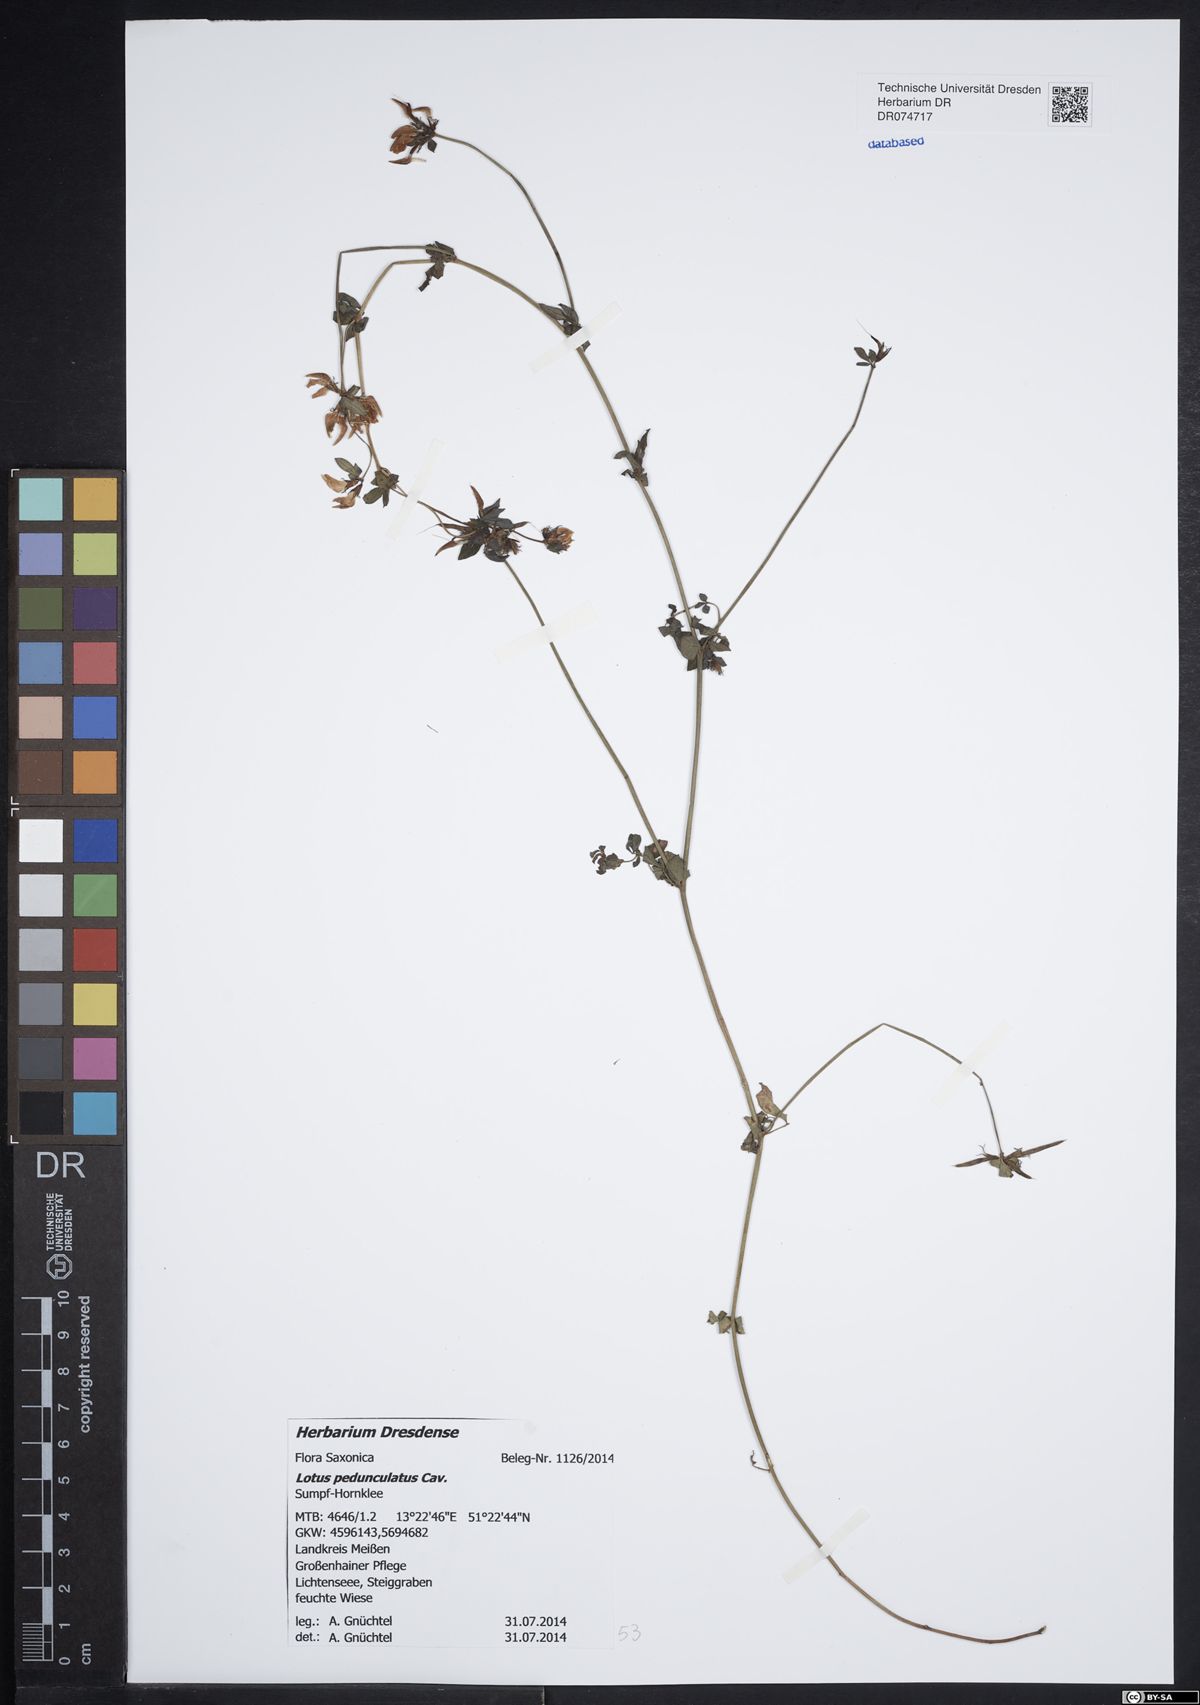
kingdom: Plantae
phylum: Tracheophyta
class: Magnoliopsida
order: Fabales
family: Fabaceae
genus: Lotus
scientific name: Lotus pedunculatus
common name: Greater birdsfoot-trefoil
